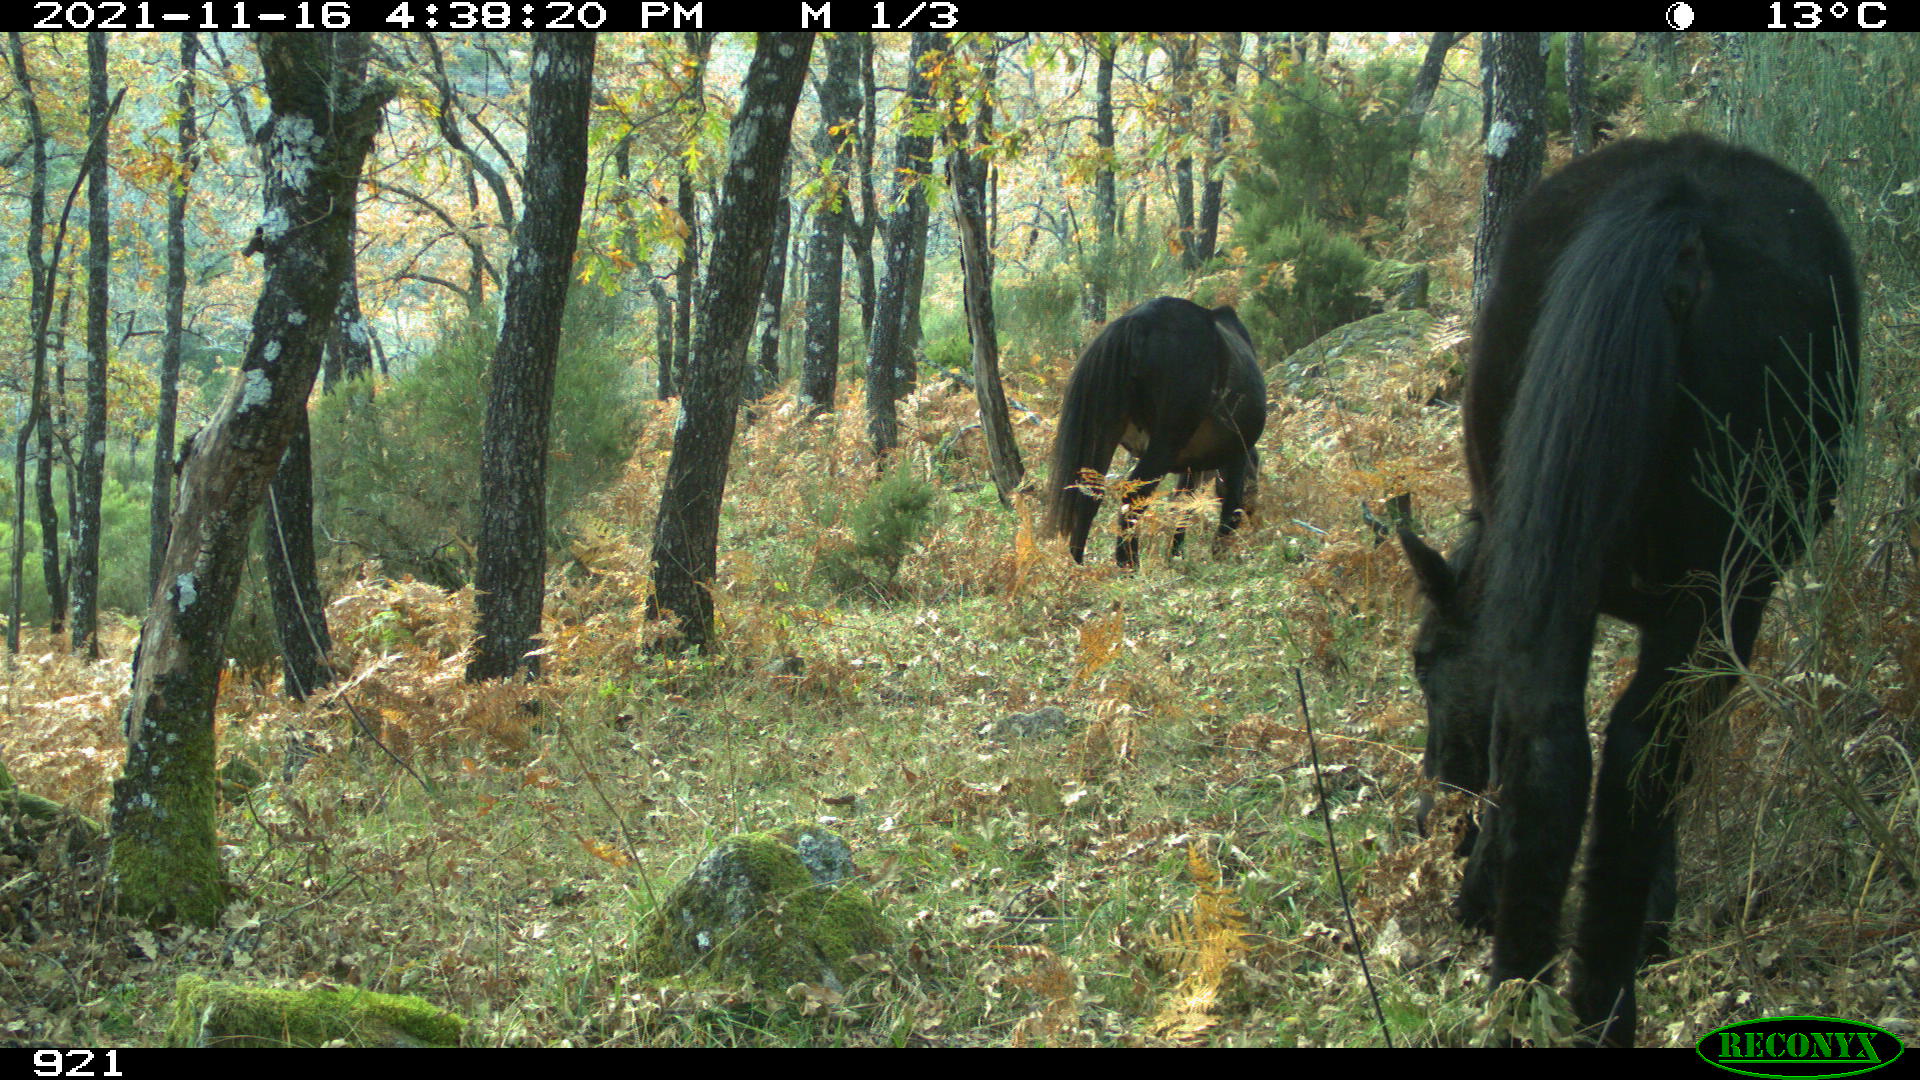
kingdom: Animalia
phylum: Chordata
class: Mammalia
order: Perissodactyla
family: Equidae
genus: Equus
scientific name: Equus caballus
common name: Horse
